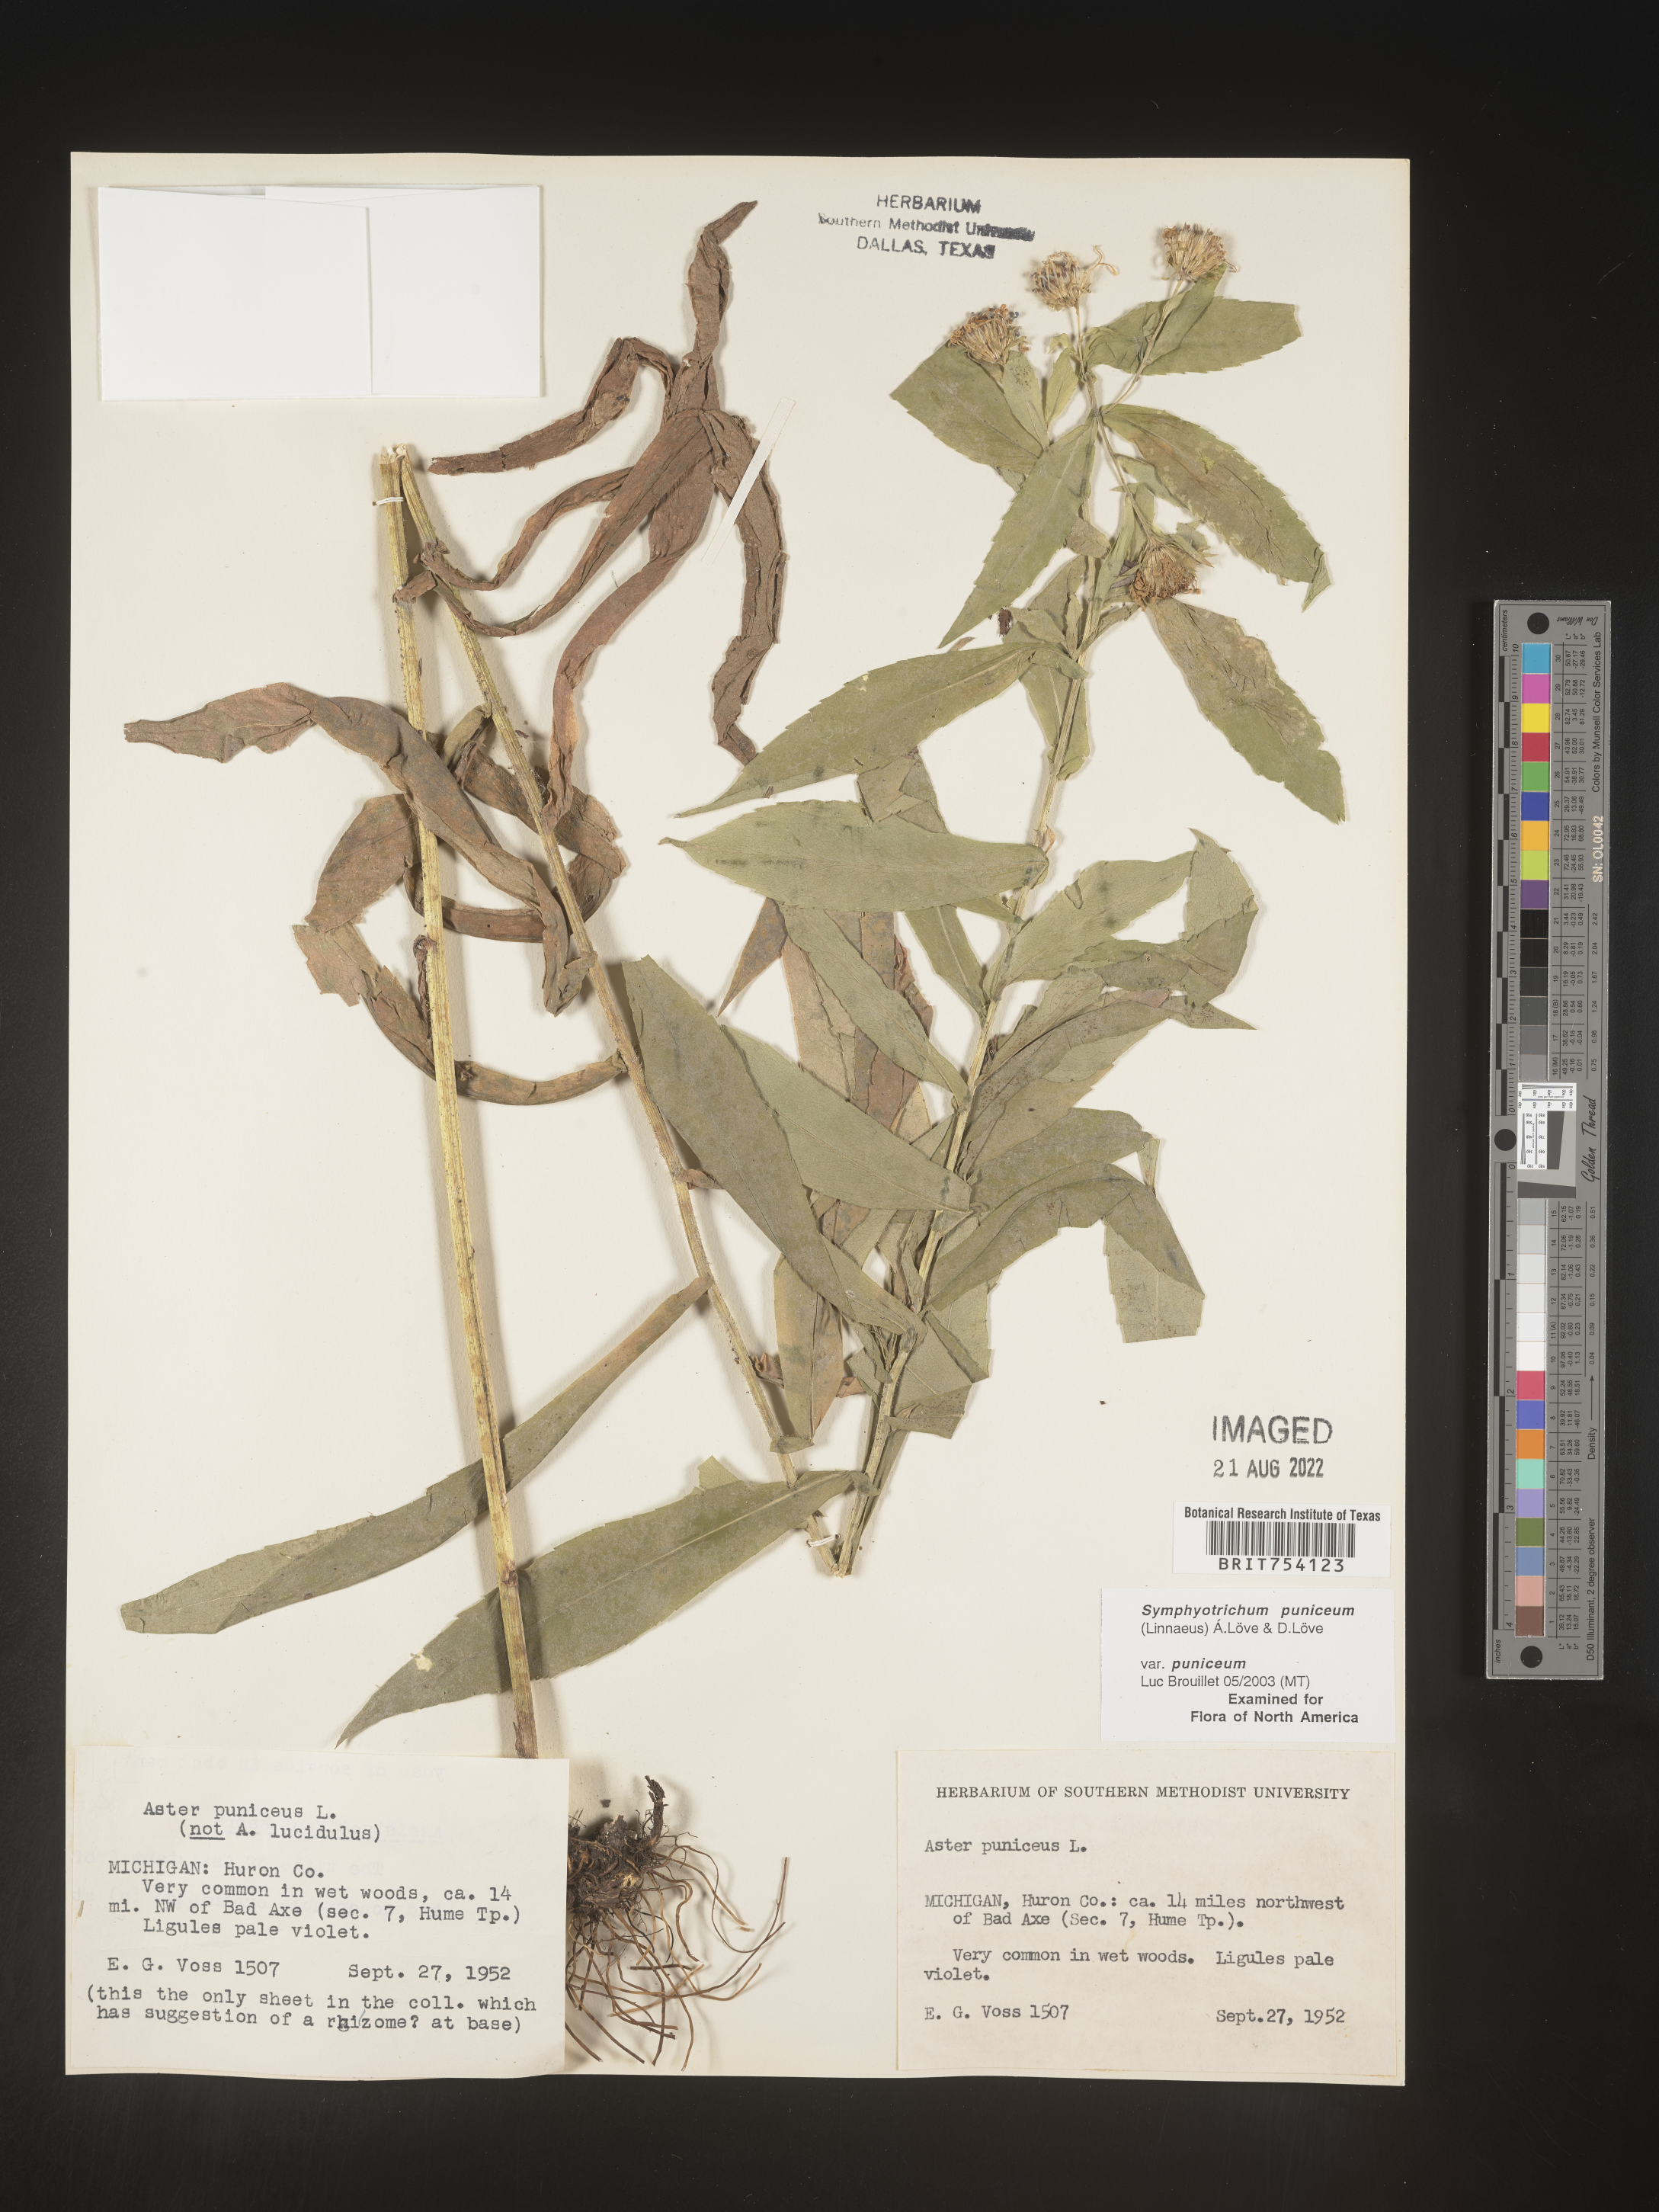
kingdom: Plantae
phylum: Tracheophyta
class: Magnoliopsida
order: Asterales
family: Asteraceae
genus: Symphyotrichum
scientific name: Symphyotrichum puniceum
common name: Bog aster
